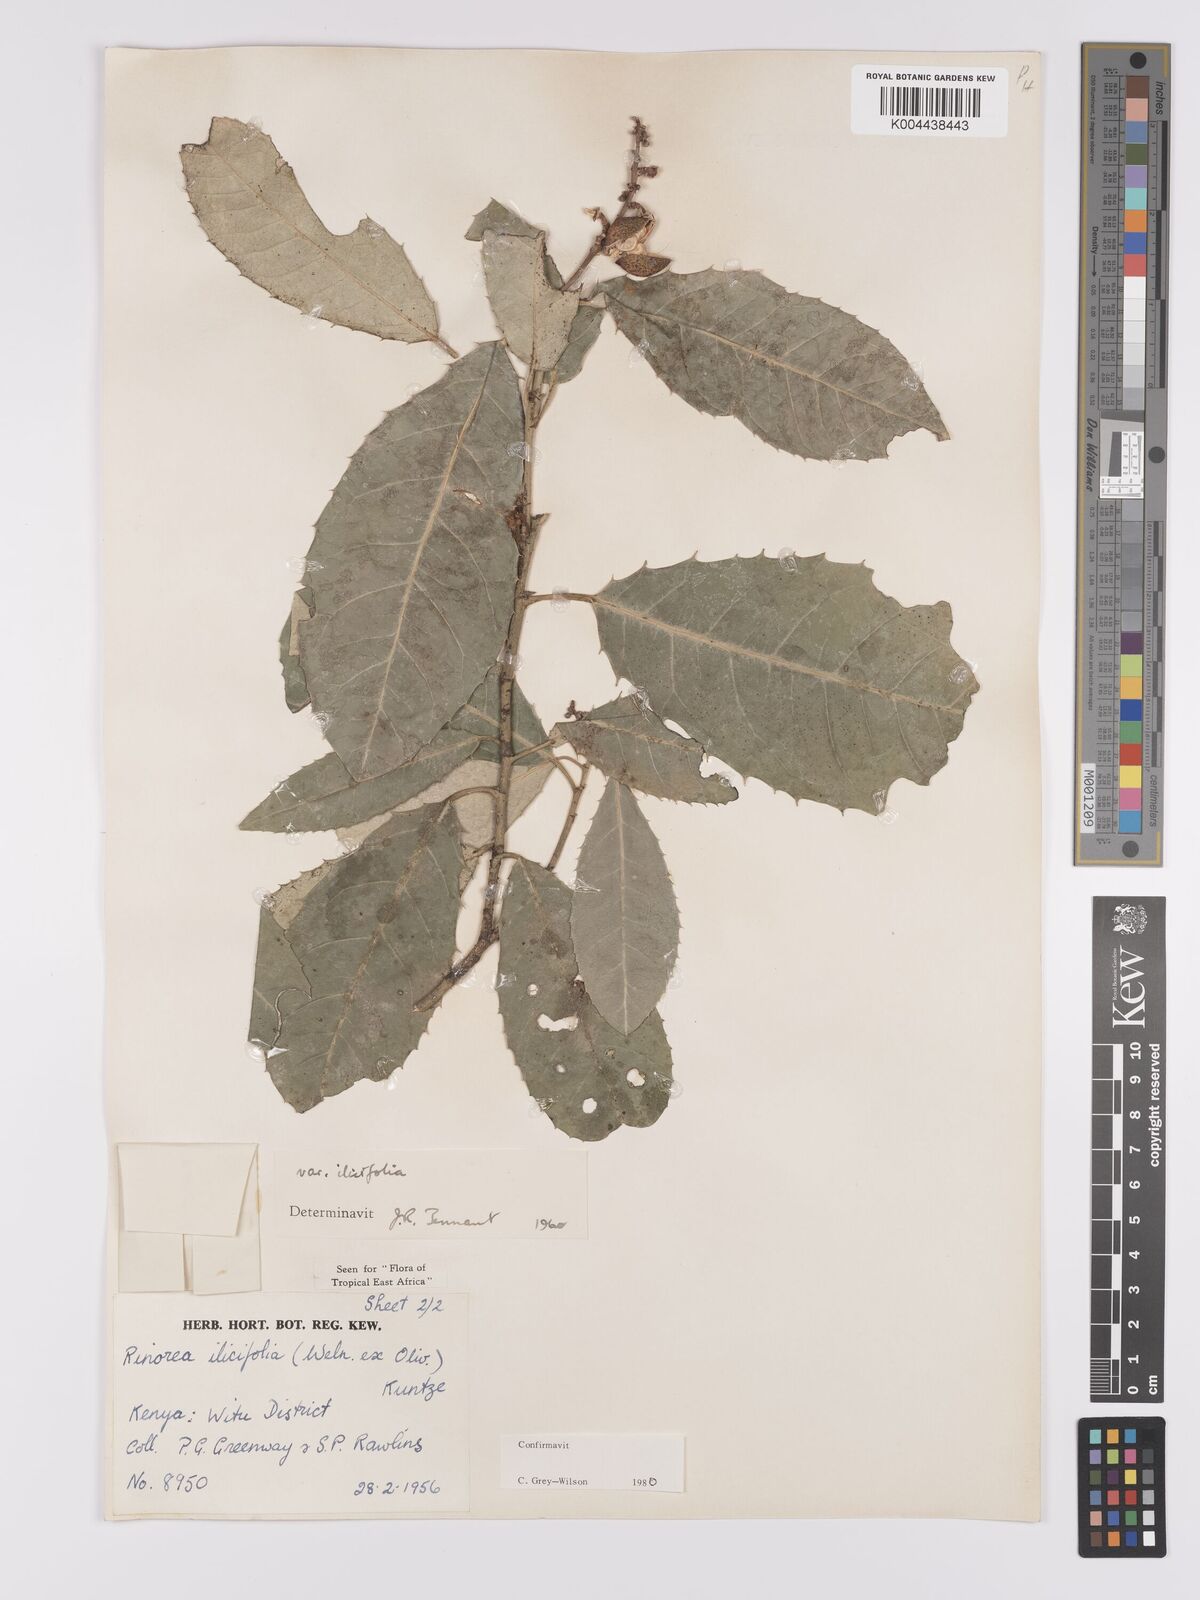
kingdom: Plantae
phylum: Tracheophyta
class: Magnoliopsida
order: Malpighiales
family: Violaceae
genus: Rinorea
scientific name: Rinorea ilicifolia
